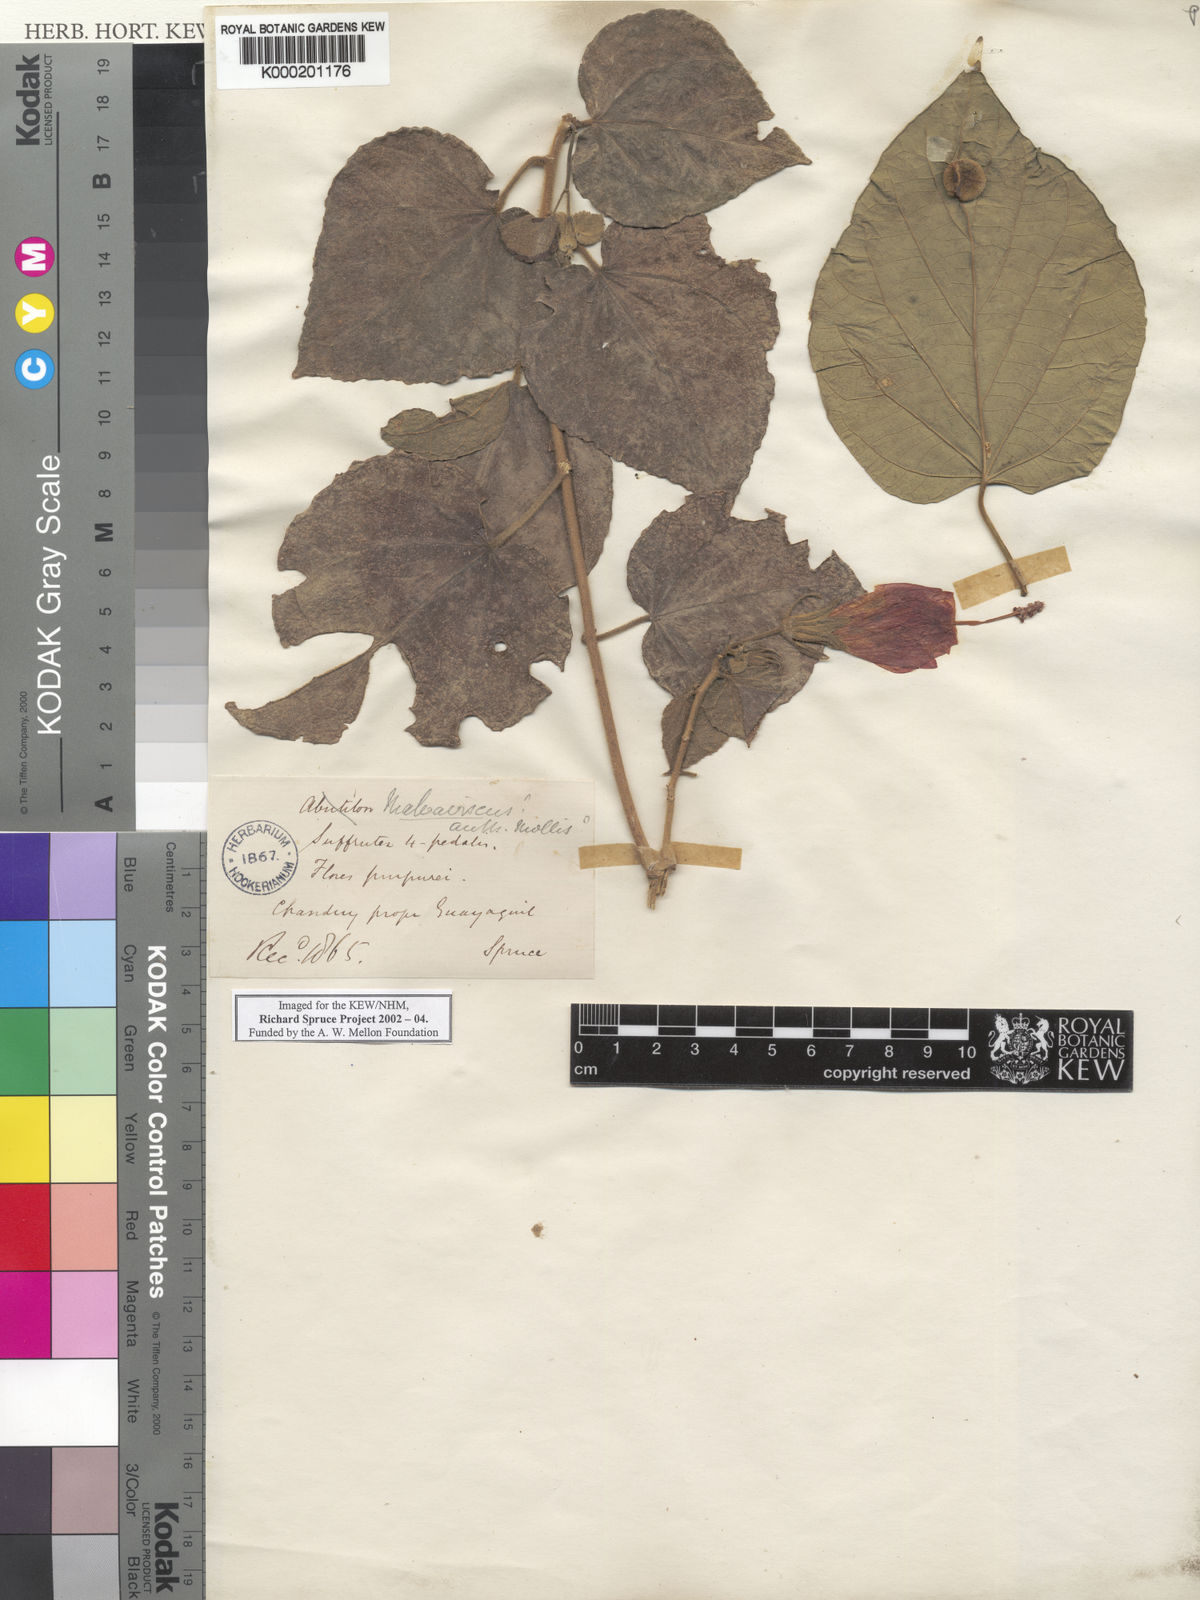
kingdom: Plantae
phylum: Tracheophyta
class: Magnoliopsida
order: Malvales
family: Malvaceae
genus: Malvaviscus
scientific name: Malvaviscus
